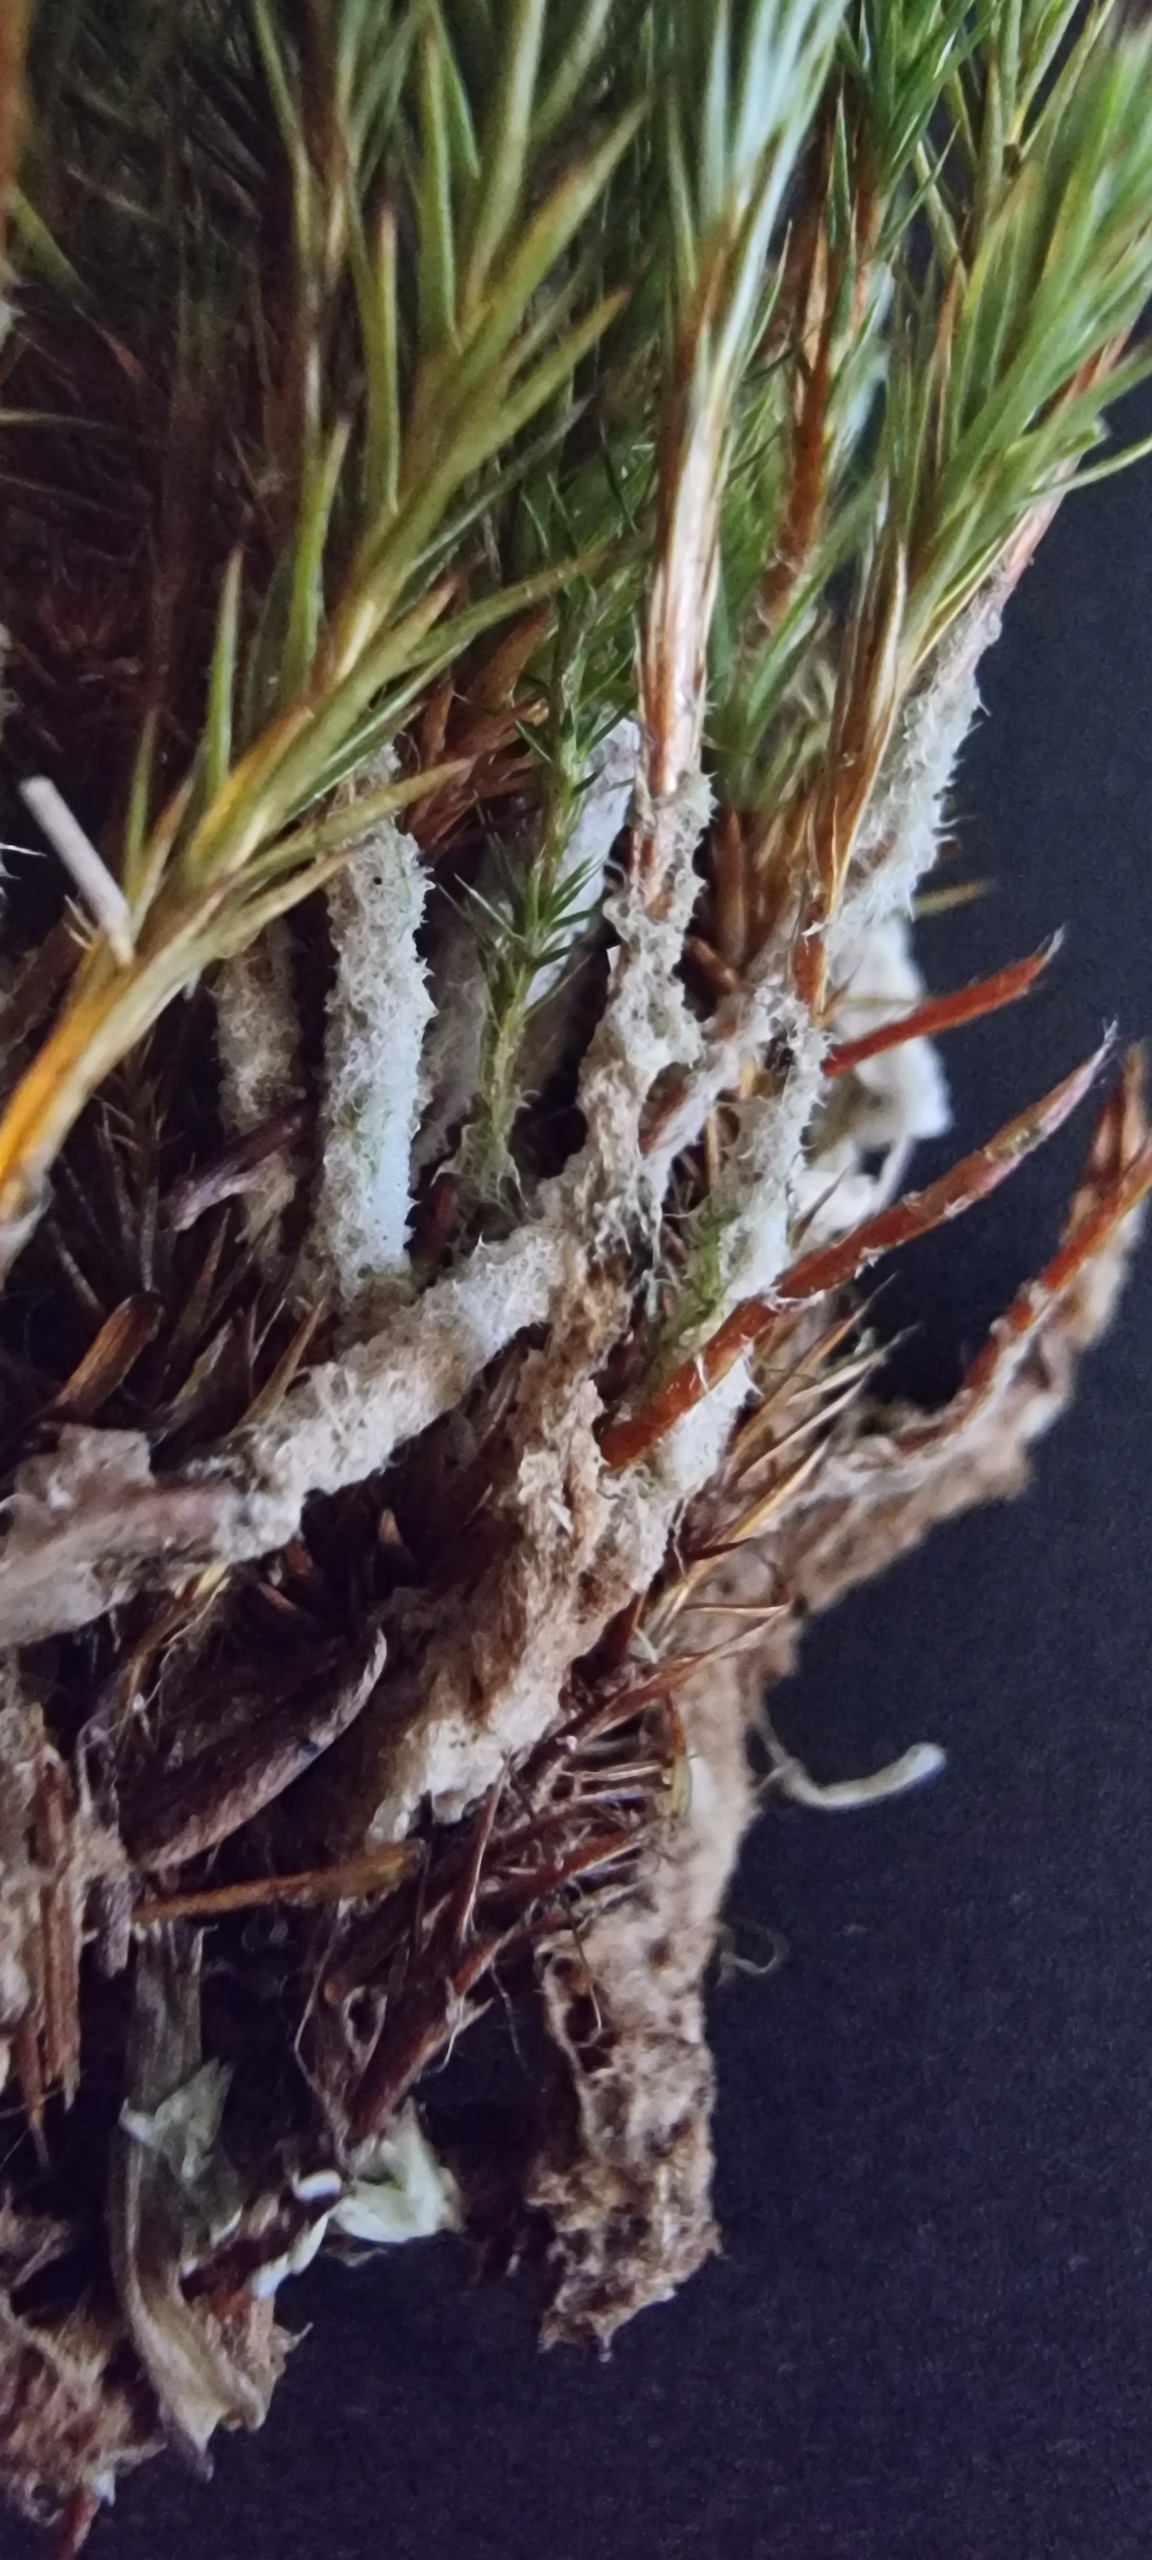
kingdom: Plantae
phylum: Bryophyta
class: Polytrichopsida
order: Polytrichales
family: Polytrichaceae
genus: Polytrichum
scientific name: Polytrichum strictum
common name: Filtstænglet jomfruhår
